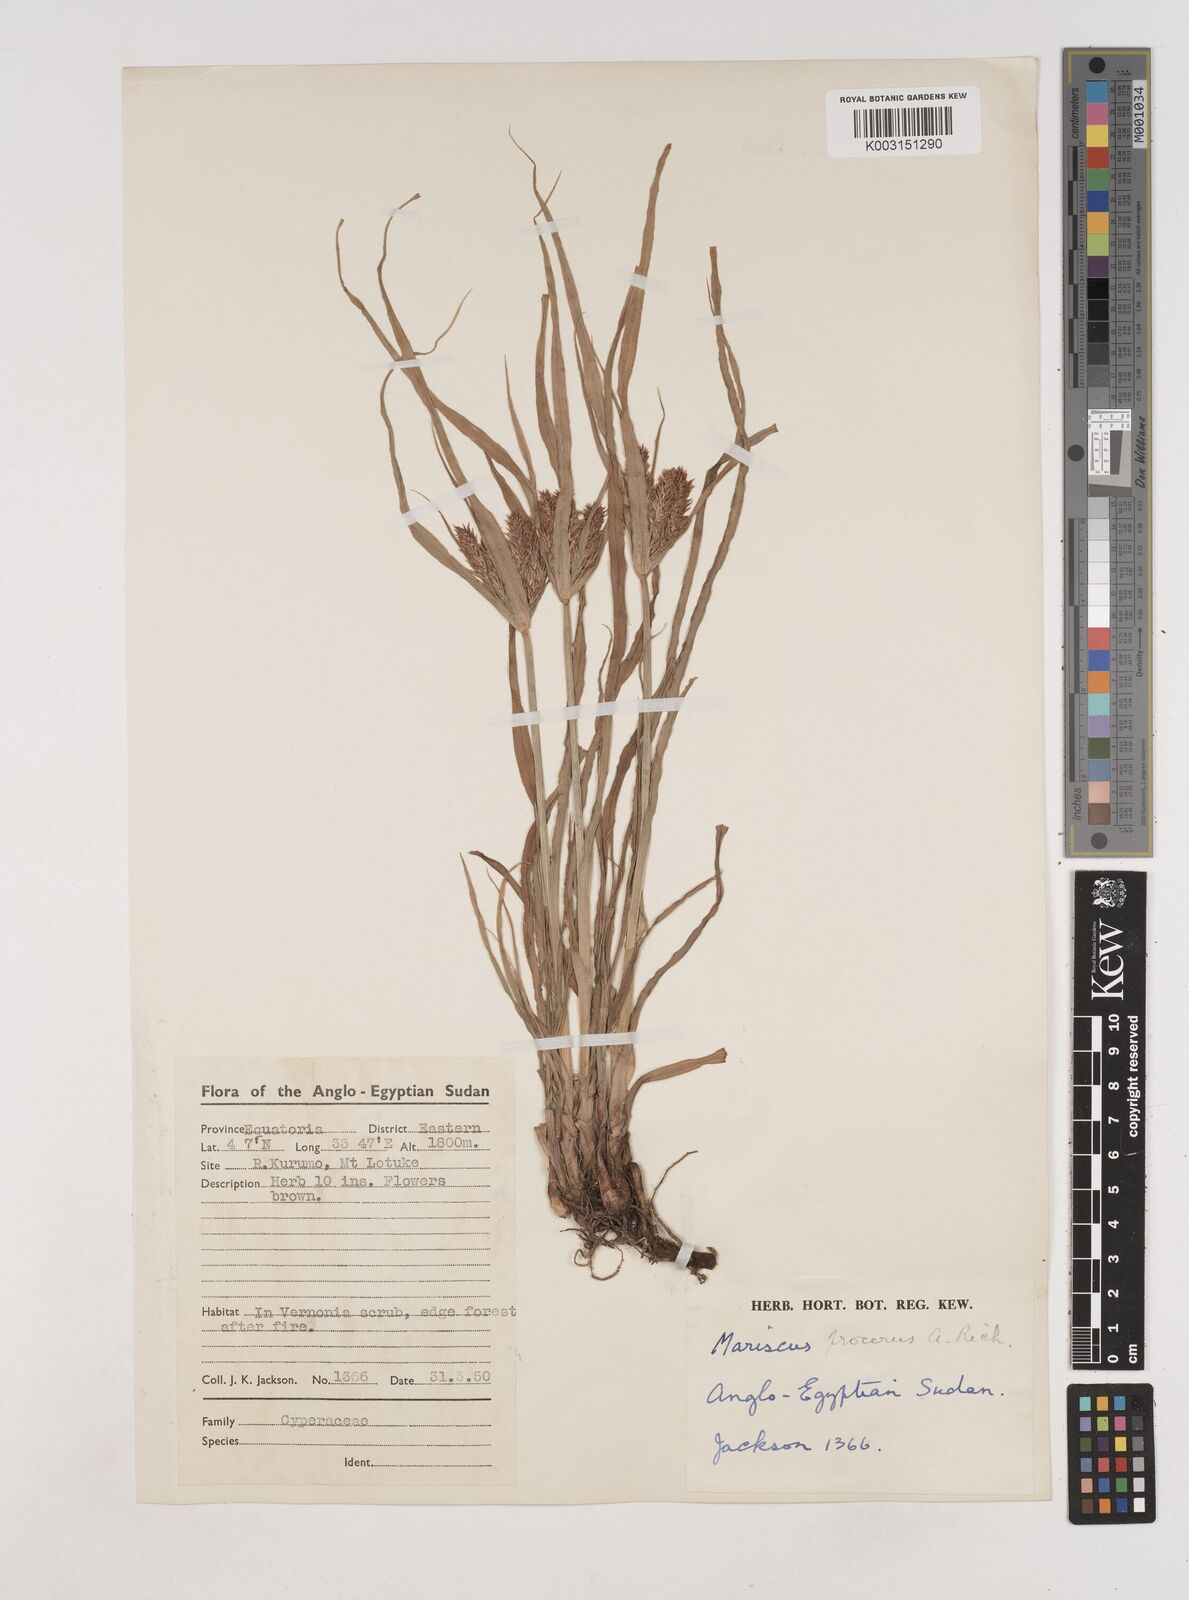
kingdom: Plantae
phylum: Tracheophyta
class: Liliopsida
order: Poales
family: Cyperaceae
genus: Cyperus
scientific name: Cyperus impubes
